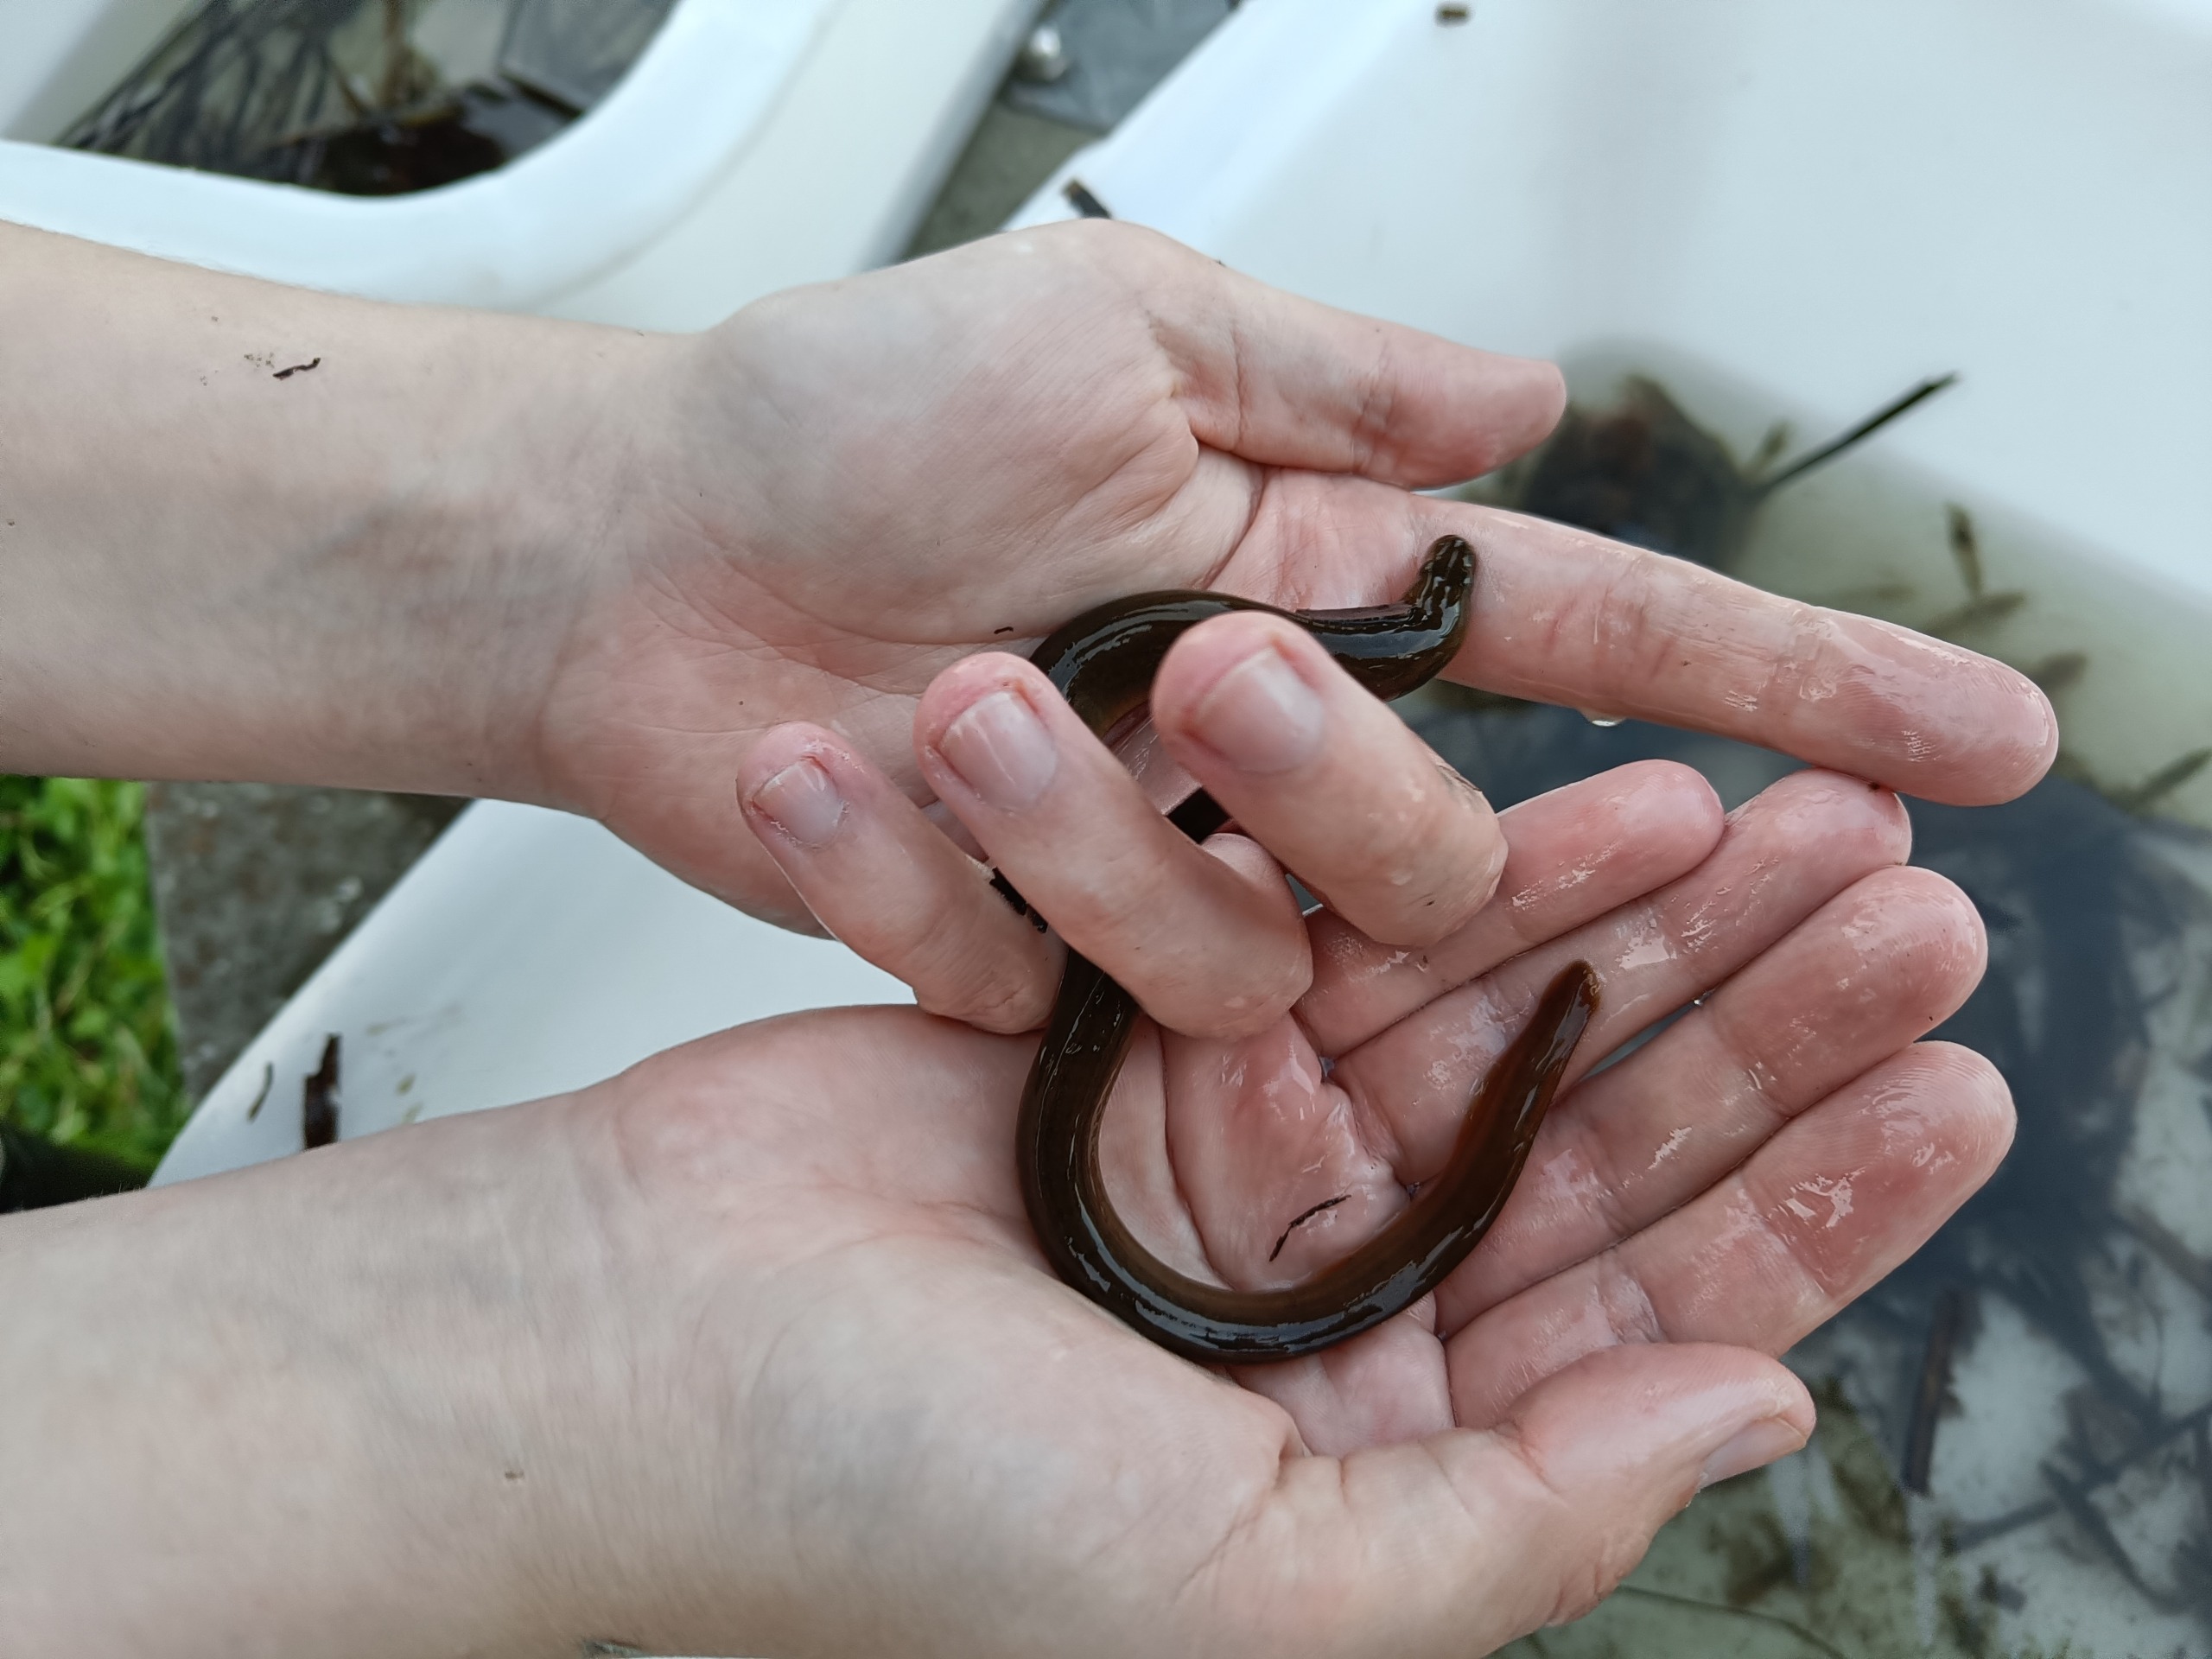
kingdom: Animalia
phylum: Chordata
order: Anguilliformes
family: Anguillidae
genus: Anguilla
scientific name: Anguilla anguilla
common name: Europæisk ål
